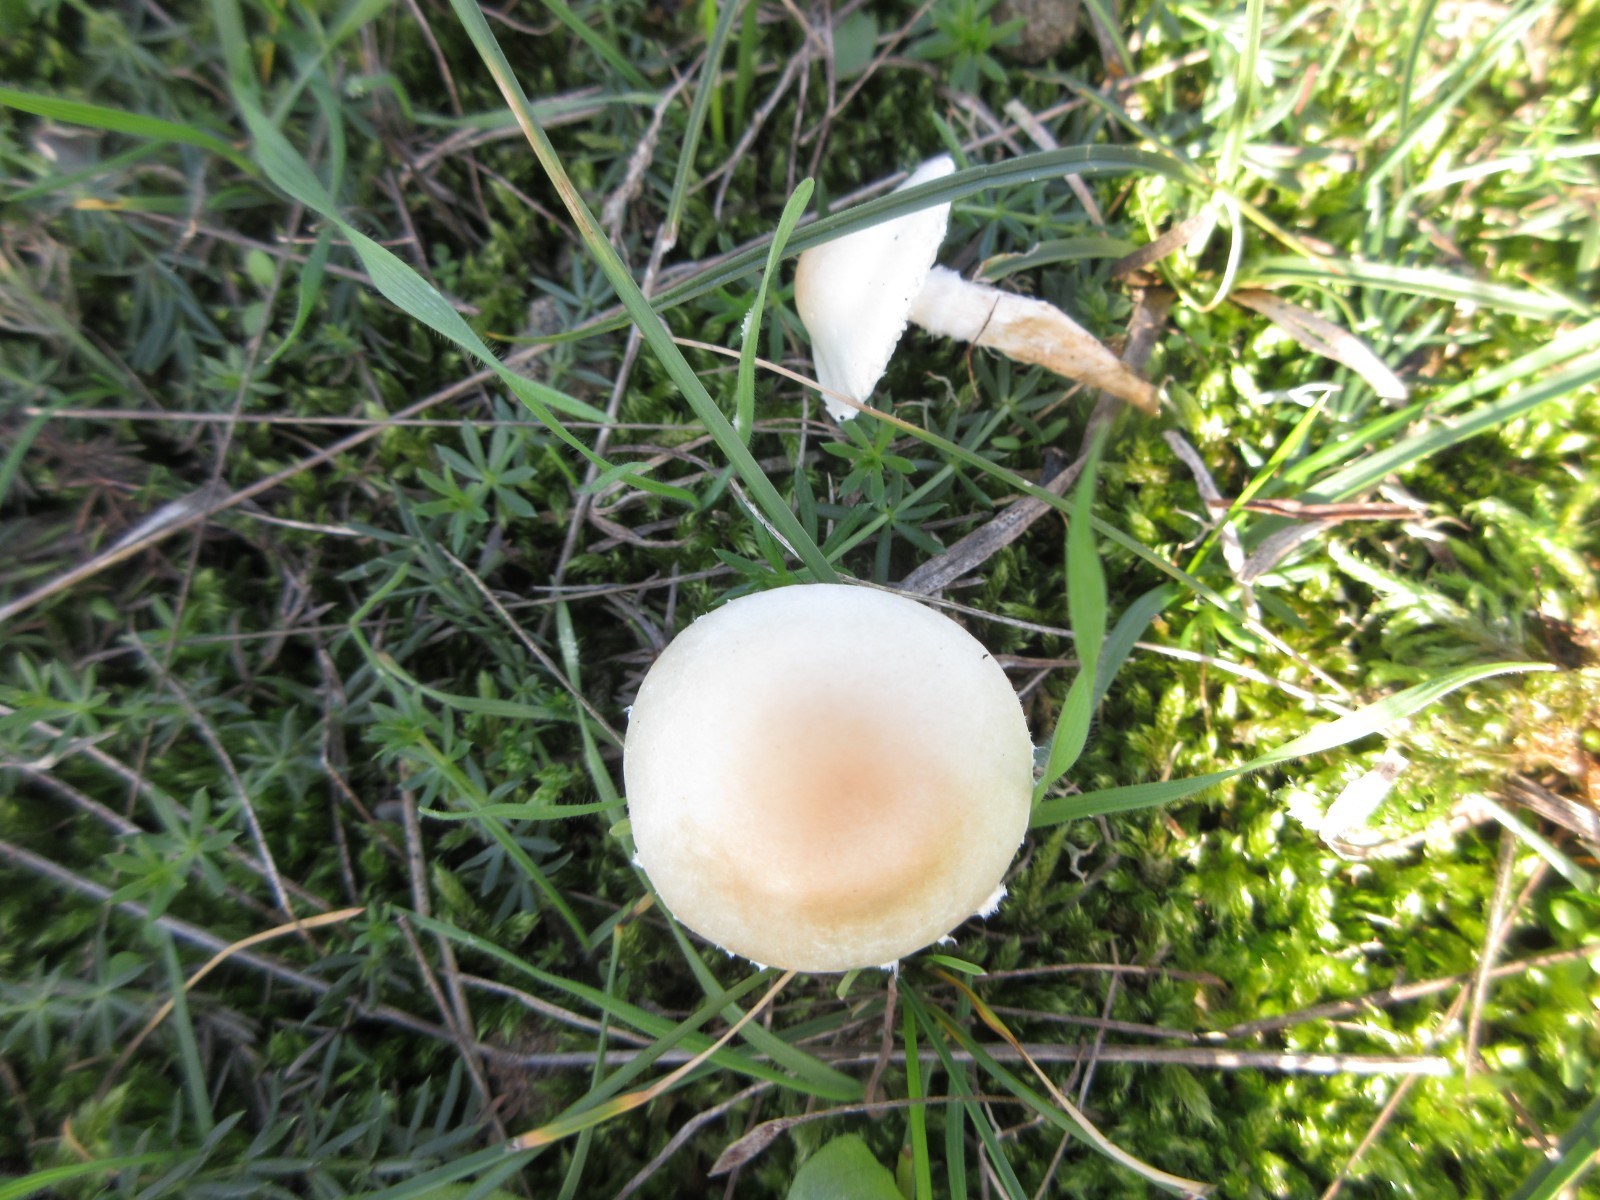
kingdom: Fungi
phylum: Basidiomycota
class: Agaricomycetes
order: Agaricales
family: Agaricaceae
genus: Lepiota
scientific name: Lepiota erminea
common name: hvid parasolhat
